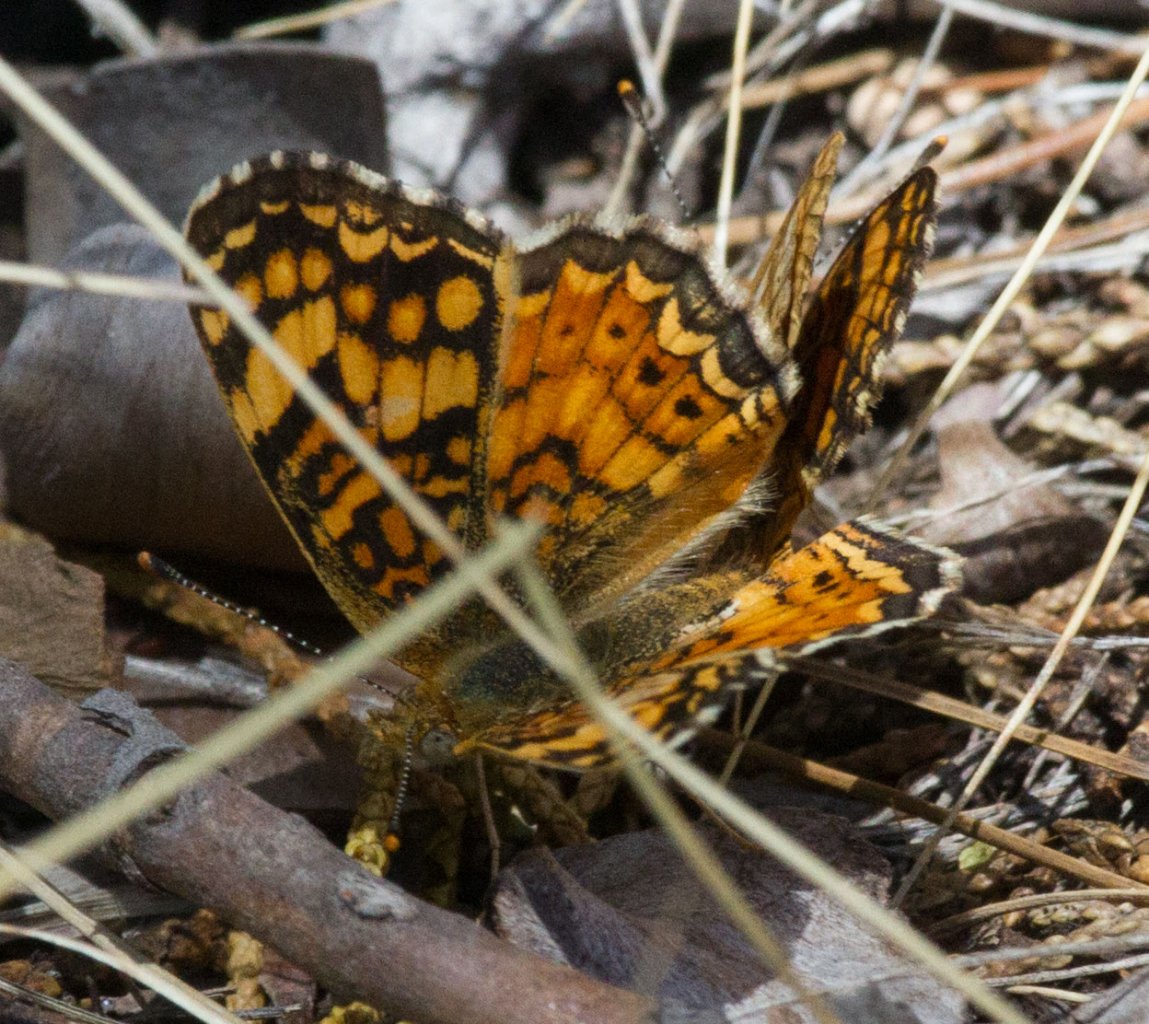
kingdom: Animalia
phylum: Arthropoda
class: Insecta
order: Lepidoptera
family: Nymphalidae
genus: Eresia
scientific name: Eresia aveyrona
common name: Mylitta Crescent
